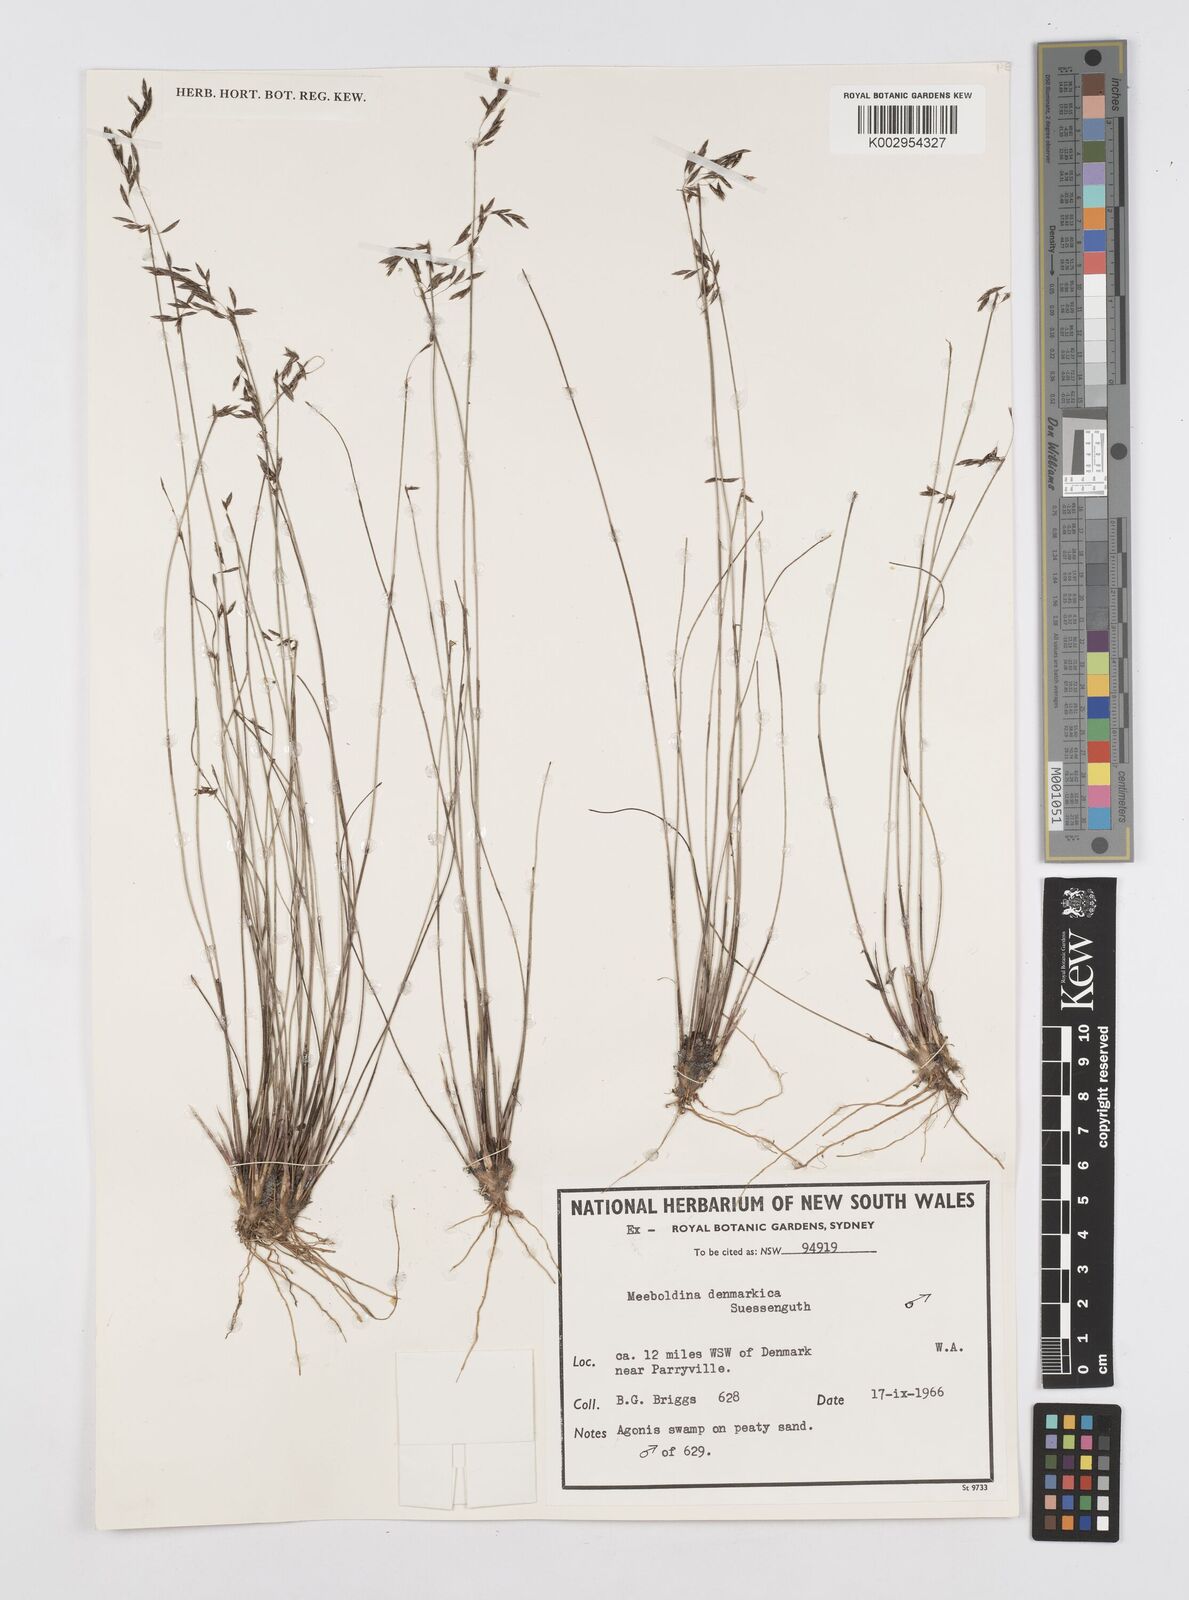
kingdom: Plantae
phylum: Tracheophyta
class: Liliopsida
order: Poales
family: Restionaceae
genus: Leptocarpus
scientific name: Leptocarpus denmarkicus
